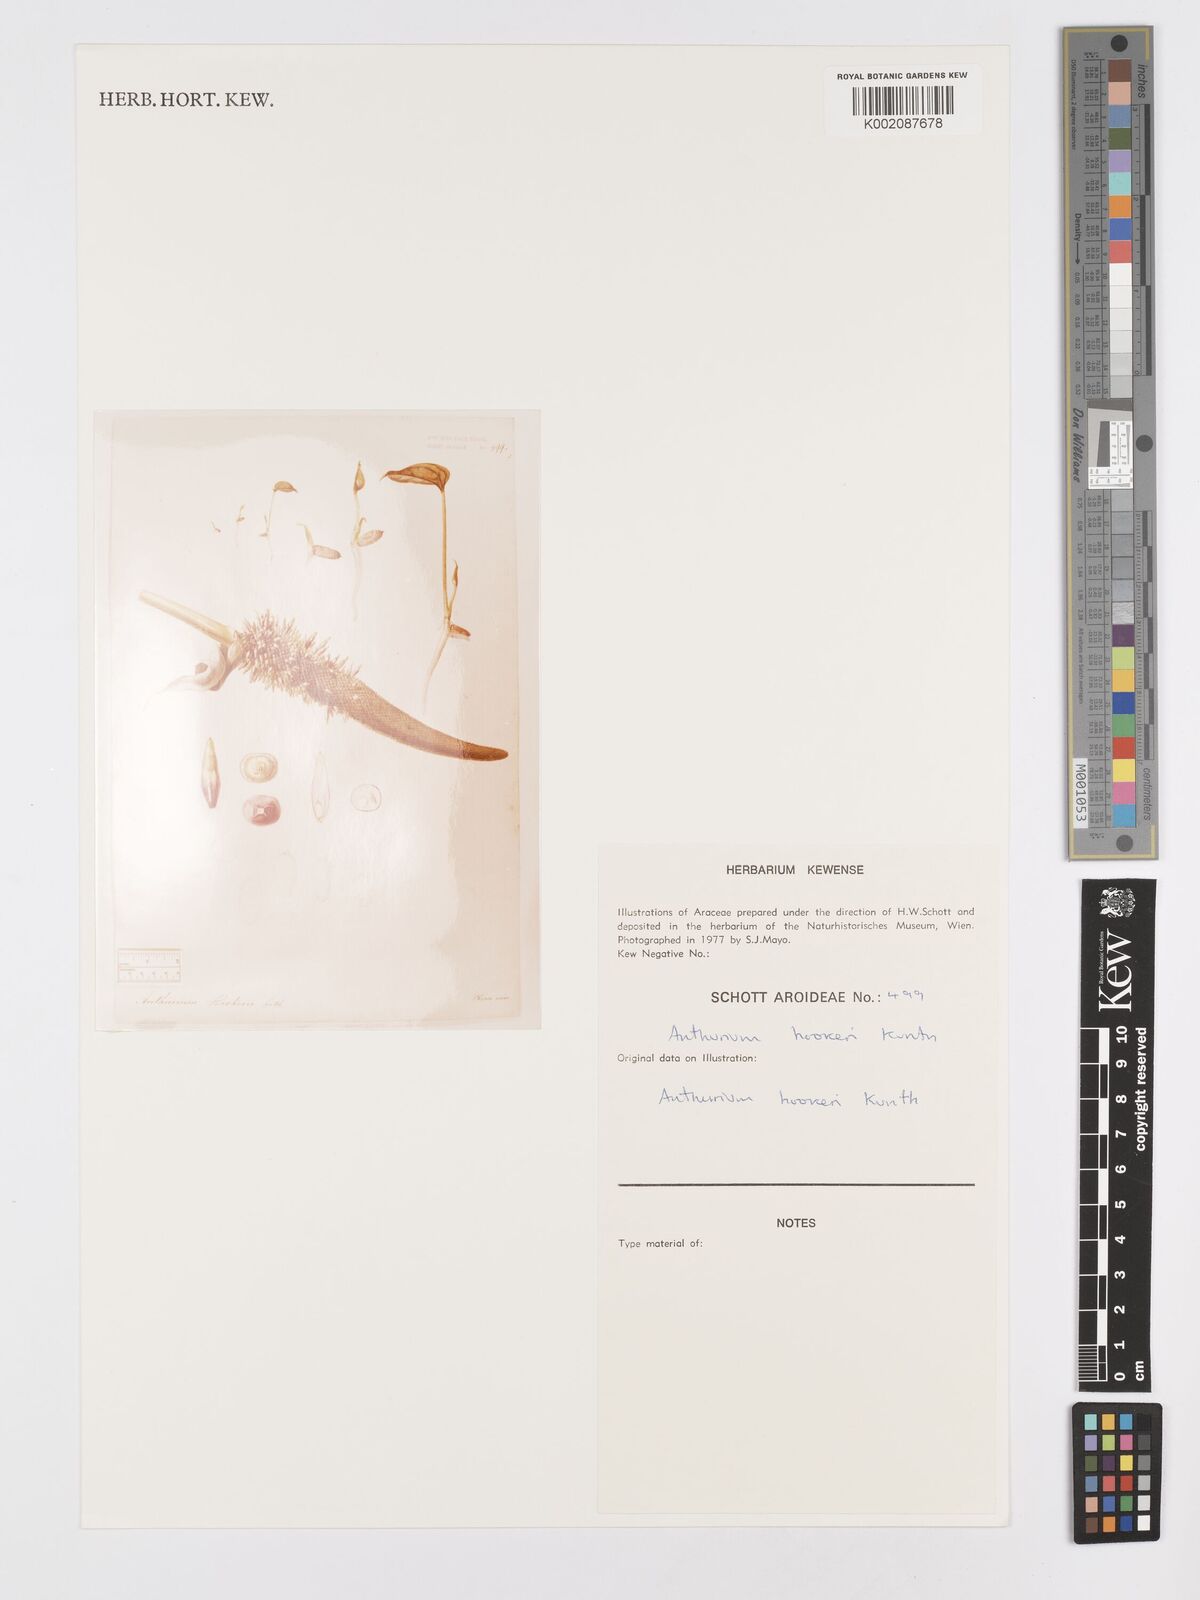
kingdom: Plantae
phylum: Tracheophyta
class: Liliopsida
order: Alismatales
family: Araceae
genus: Anthurium
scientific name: Anthurium hookeri
